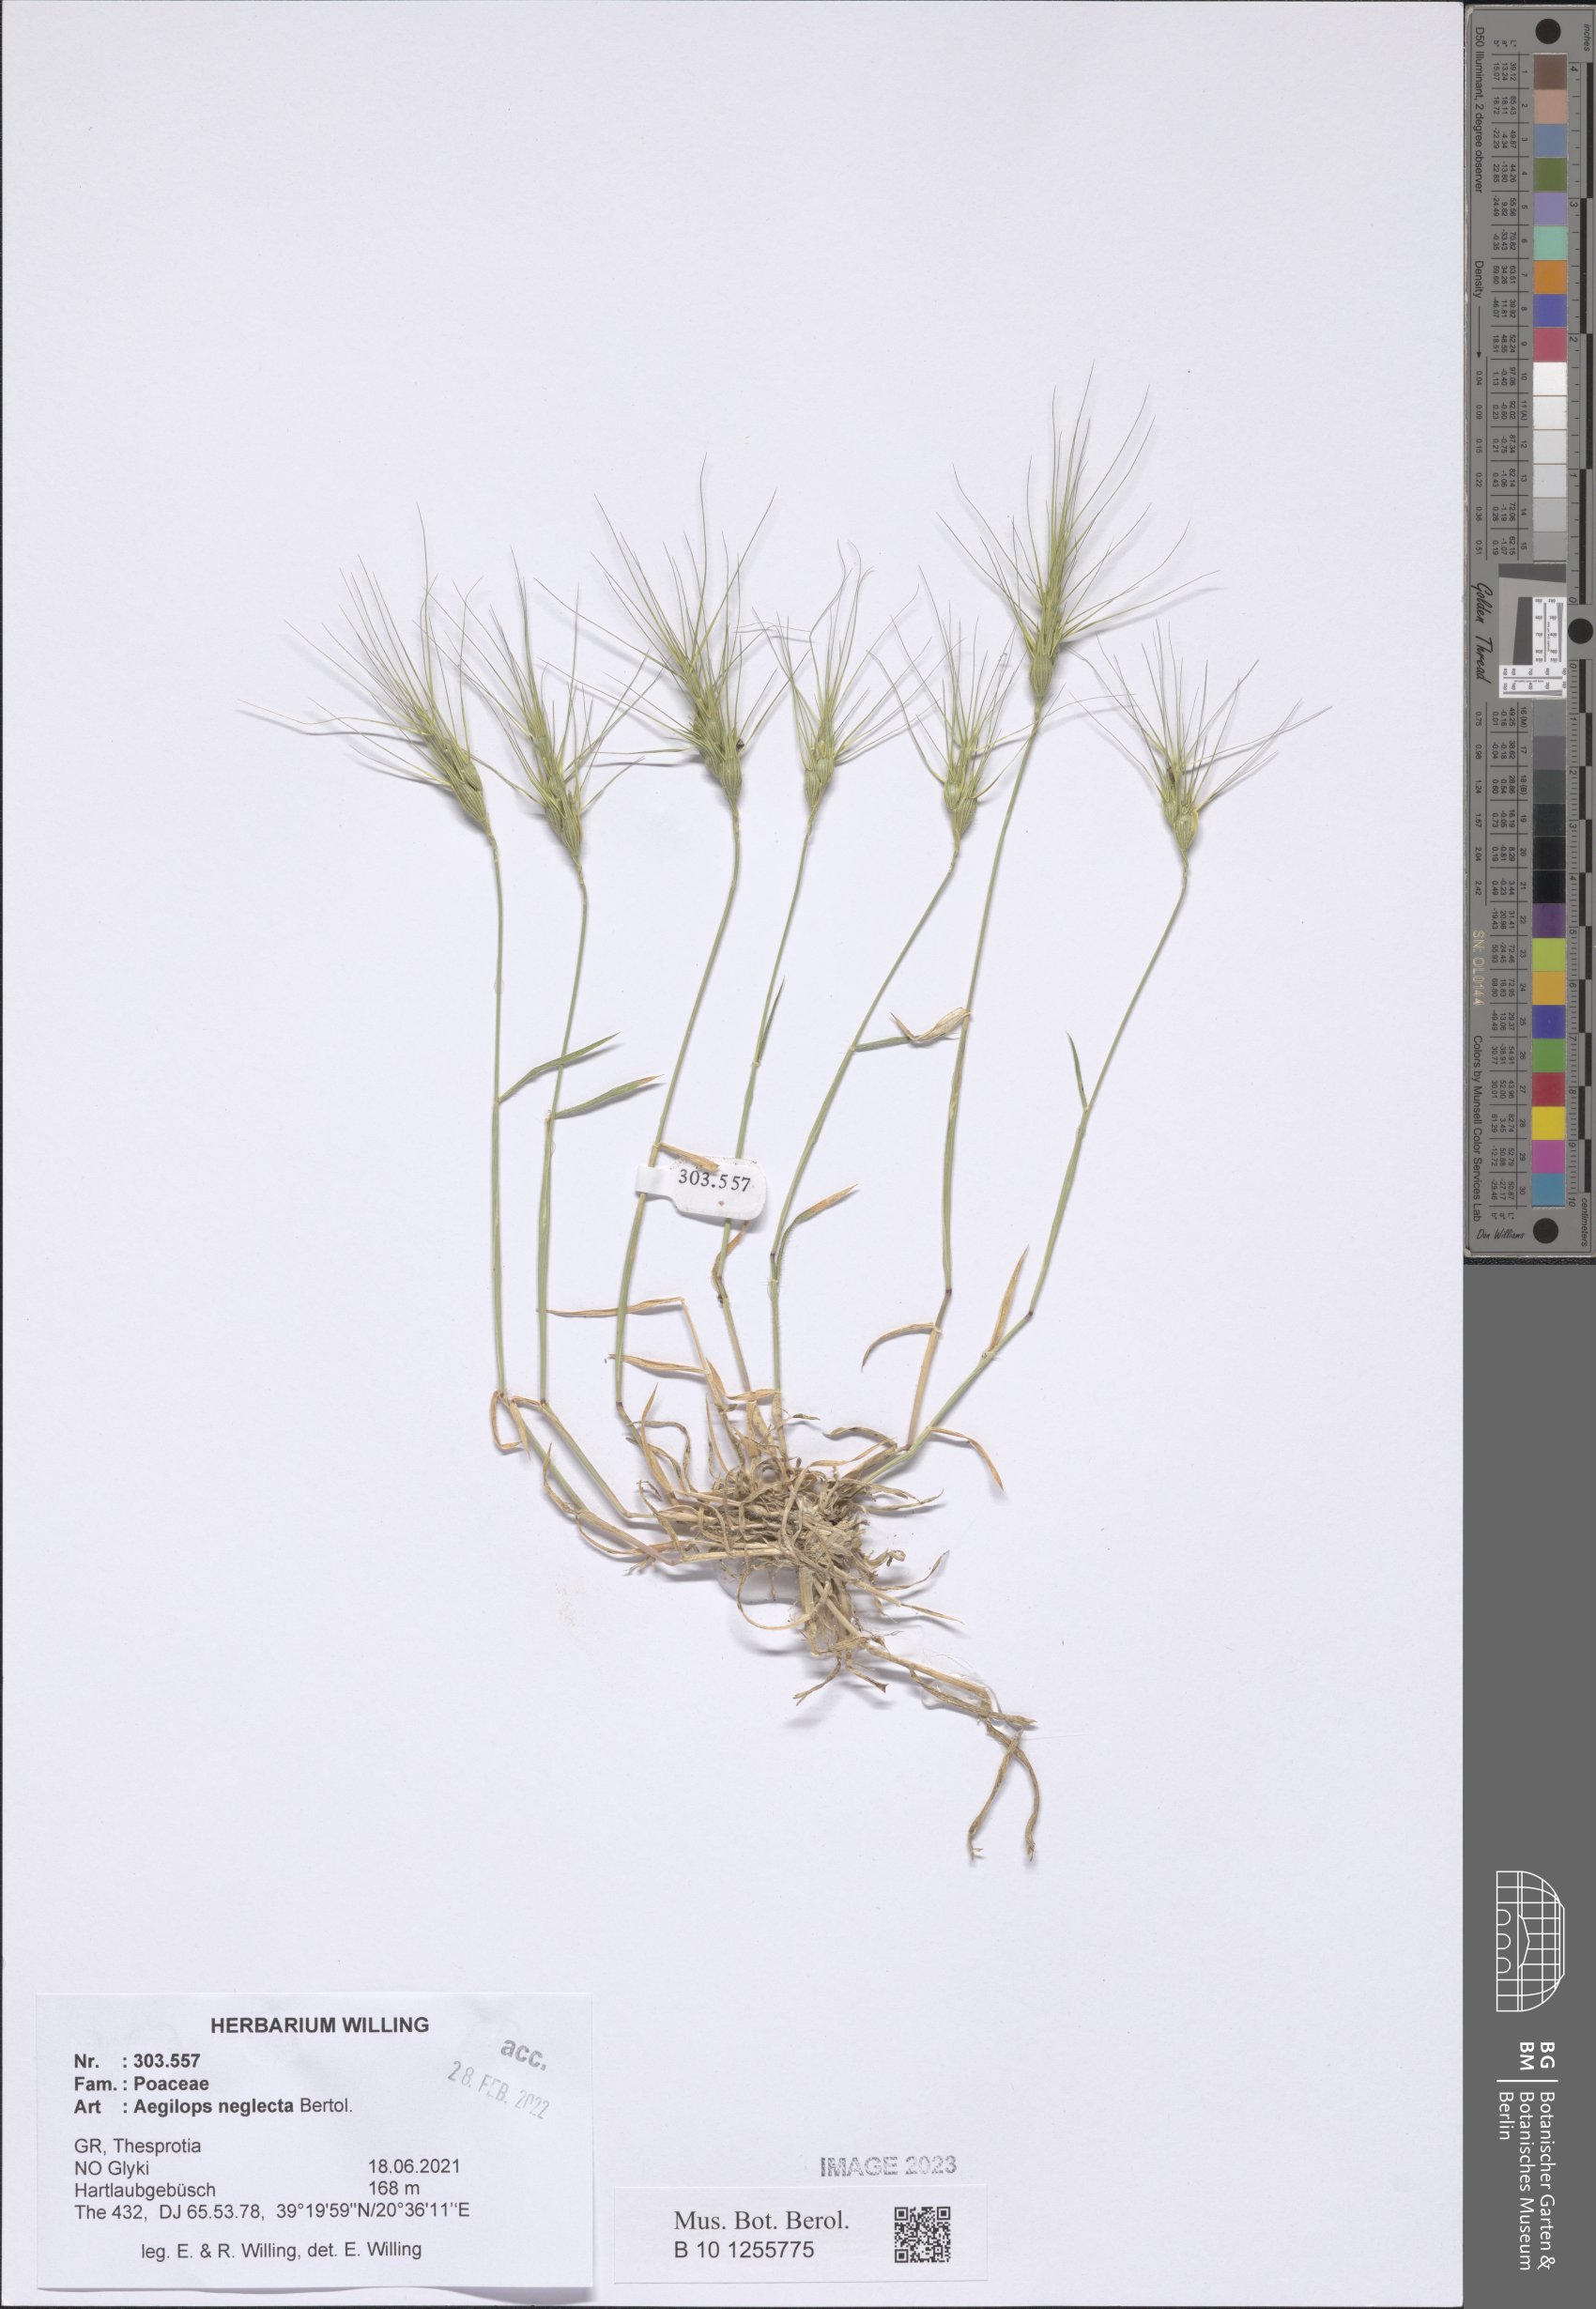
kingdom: Plantae
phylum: Tracheophyta
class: Liliopsida
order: Poales
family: Poaceae
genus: Aegilops
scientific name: Aegilops neglecta
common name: Three-awn goat grass
